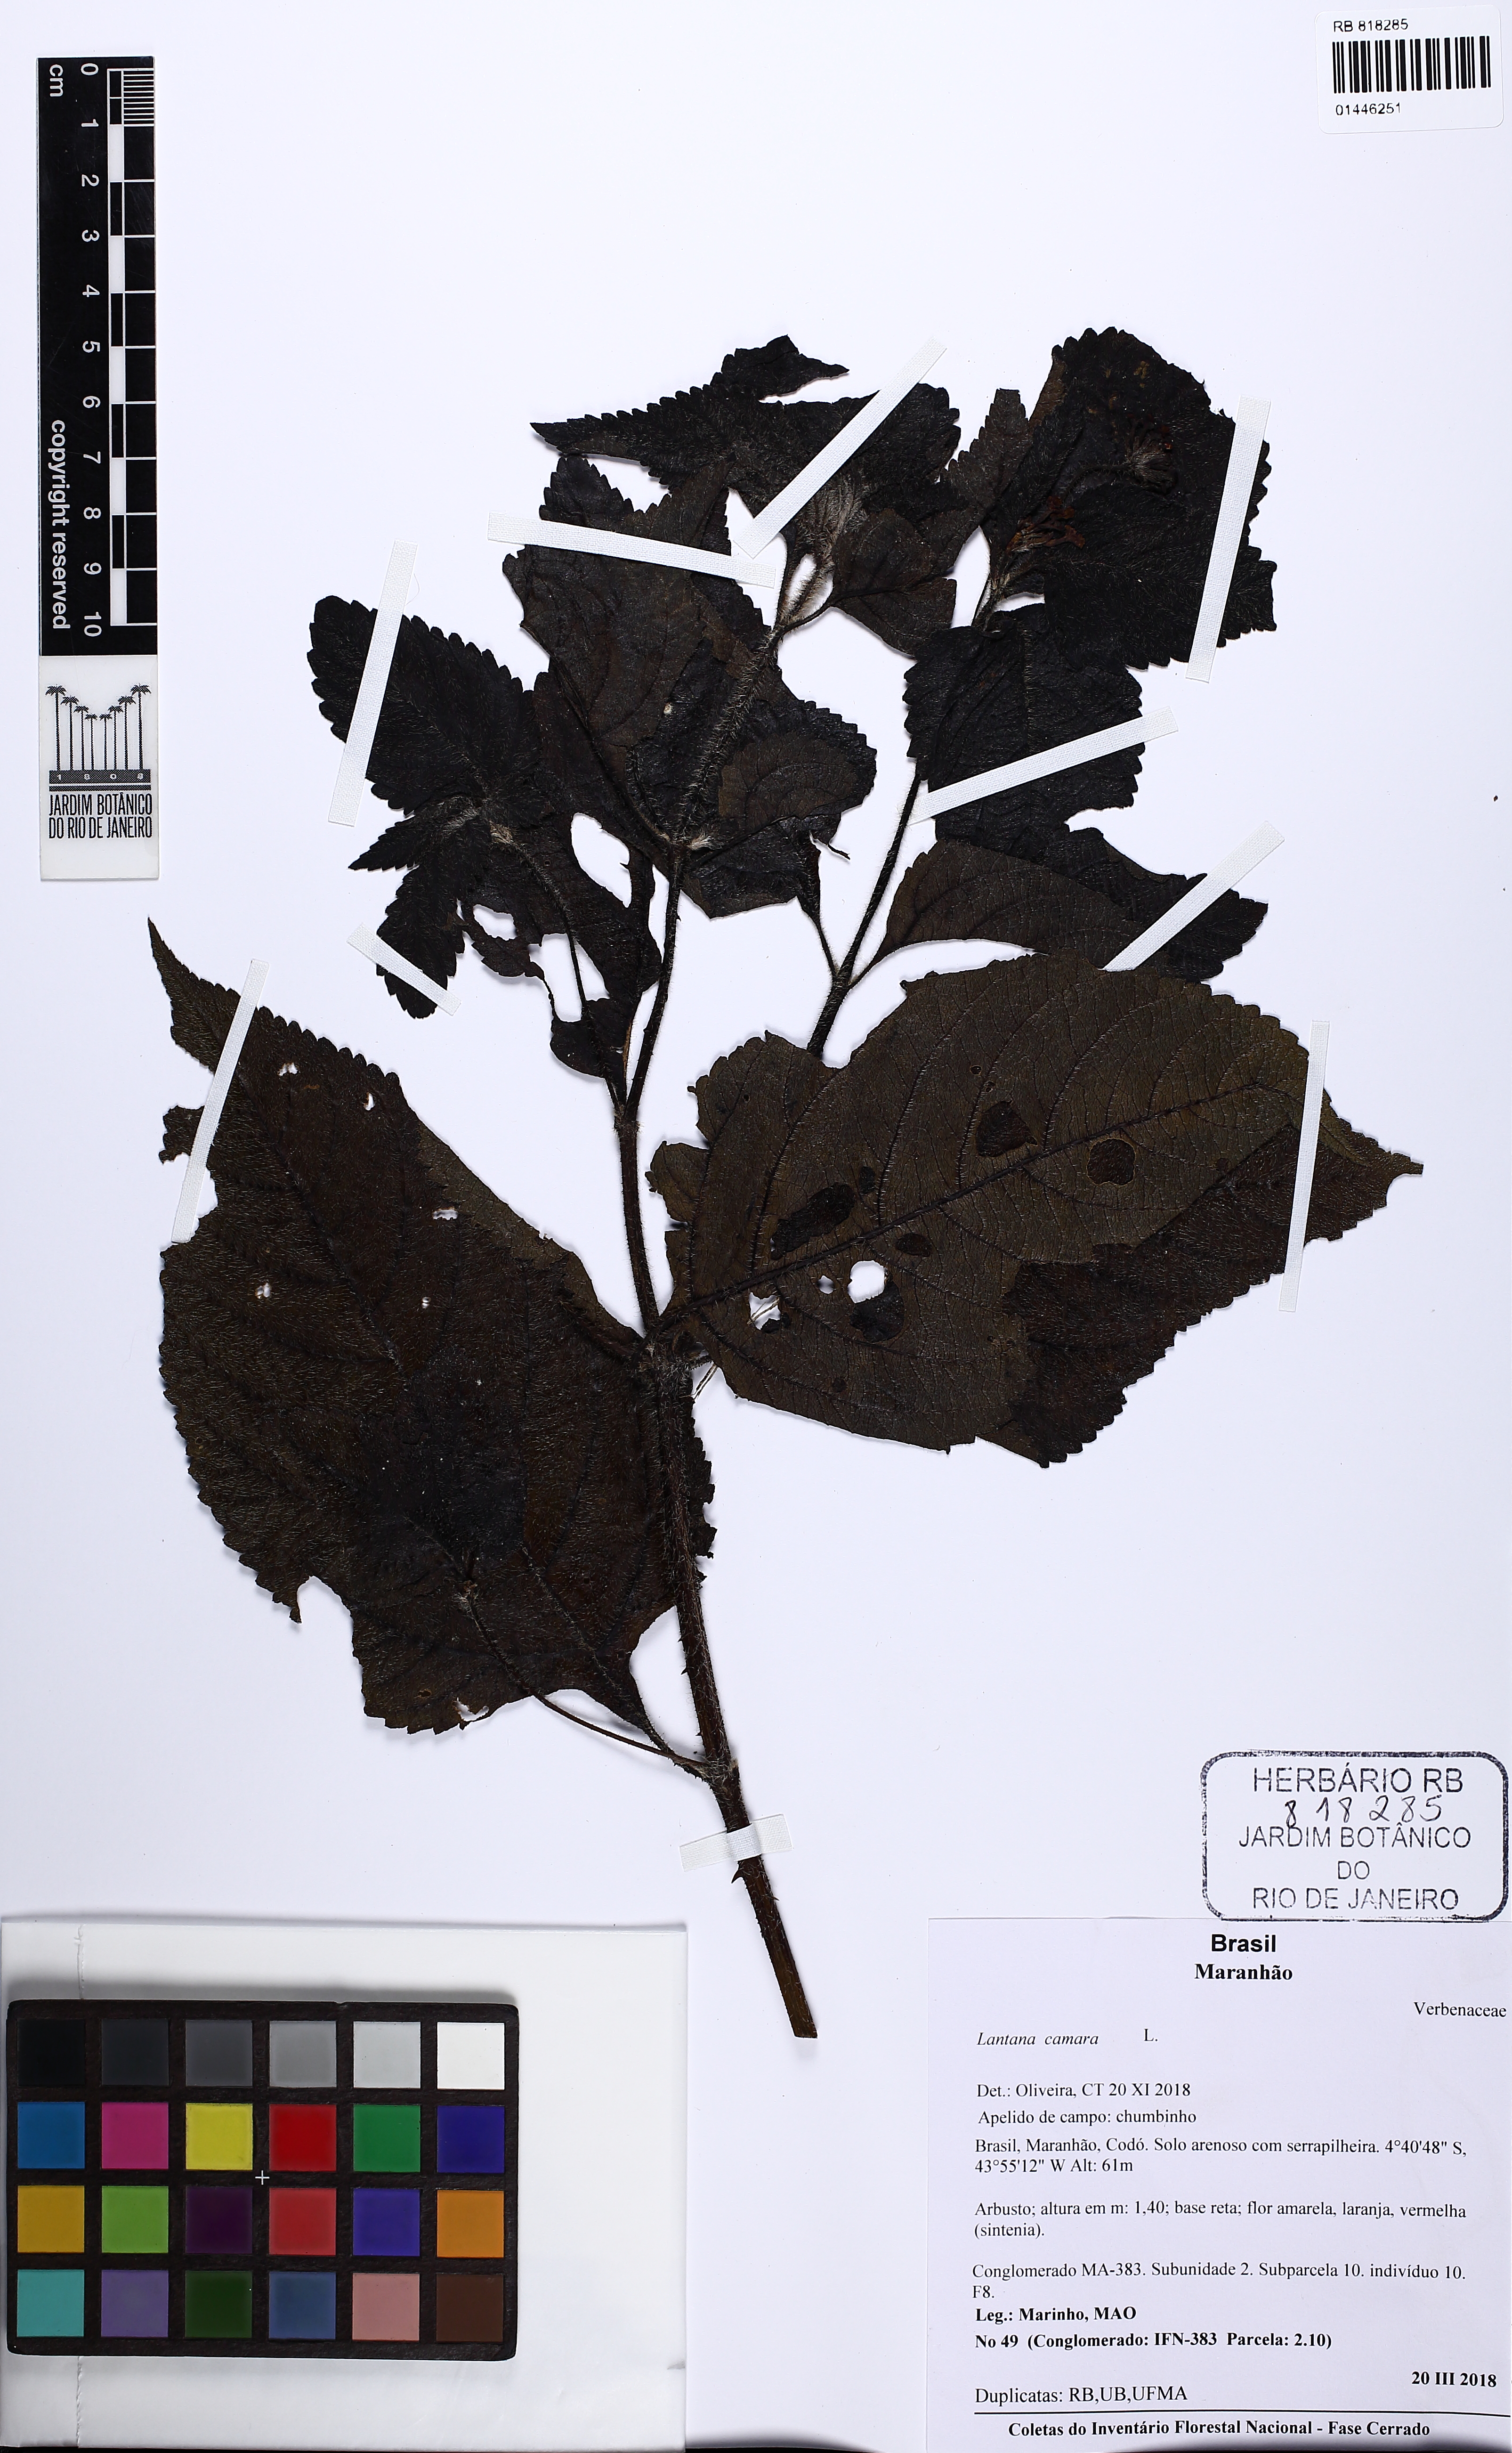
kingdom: Plantae
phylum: Tracheophyta
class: Magnoliopsida
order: Lamiales
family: Verbenaceae
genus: Lantana
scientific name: Lantana camara
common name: Lantana
